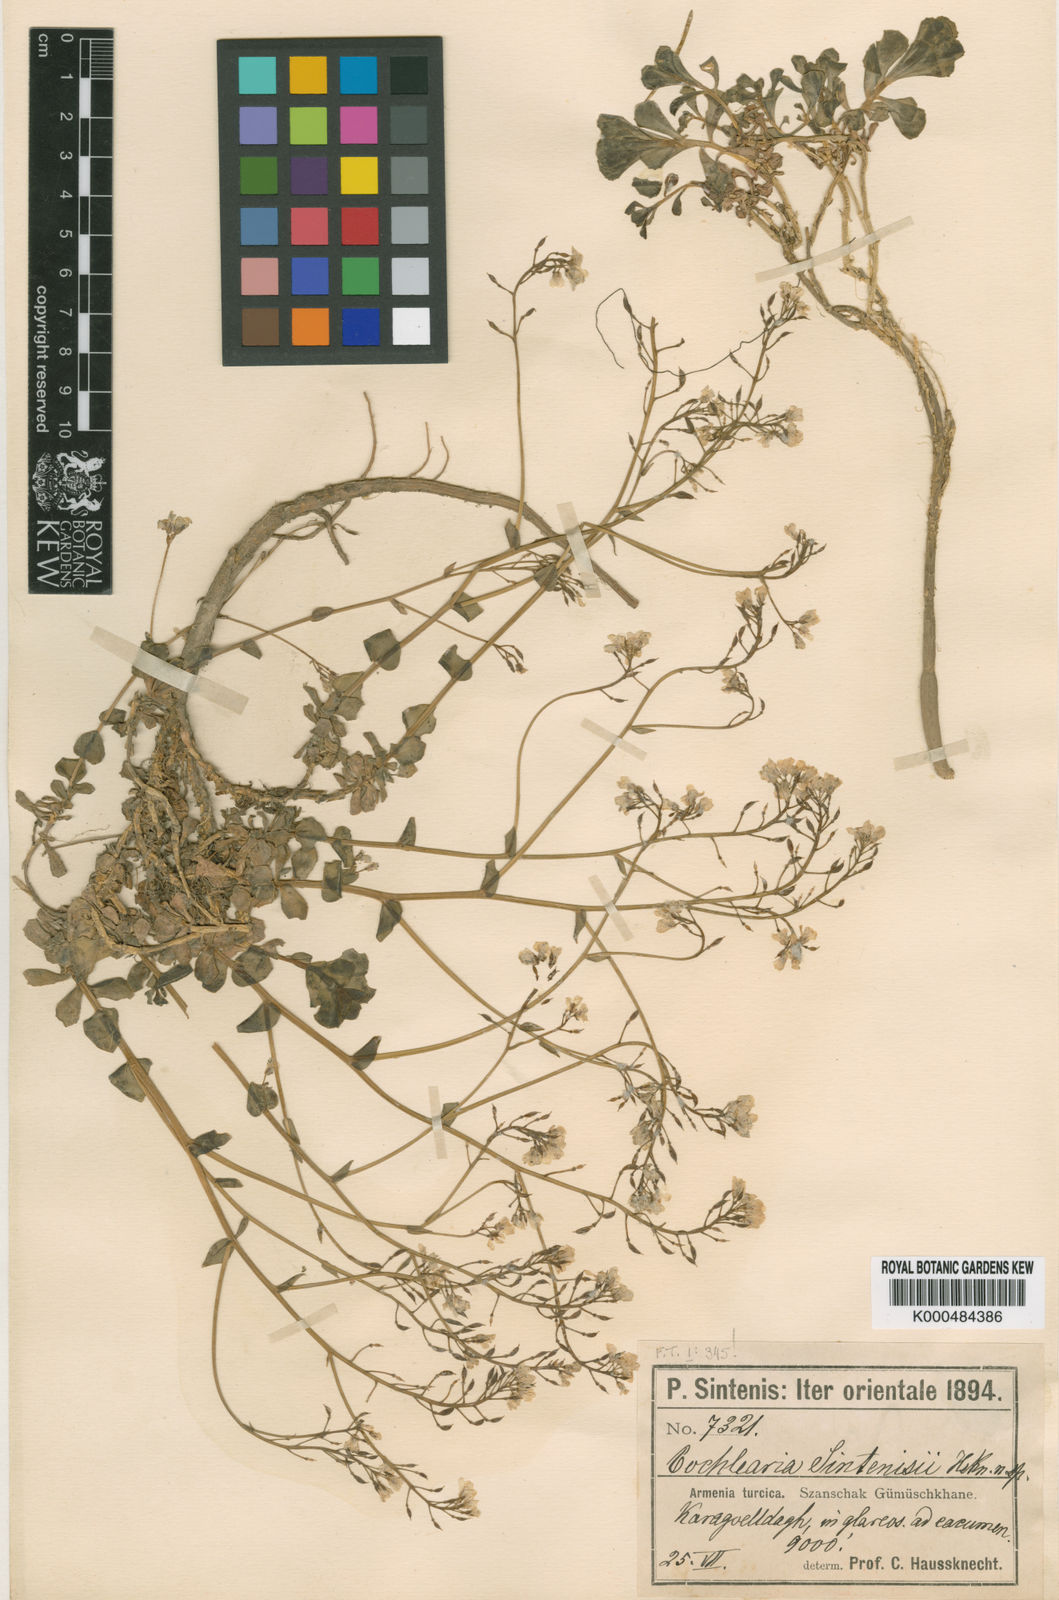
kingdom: Plantae
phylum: Tracheophyta
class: Magnoliopsida
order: Brassicales
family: Brassicaceae
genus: Noccaea
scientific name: Noccaea mummenhoffiana
